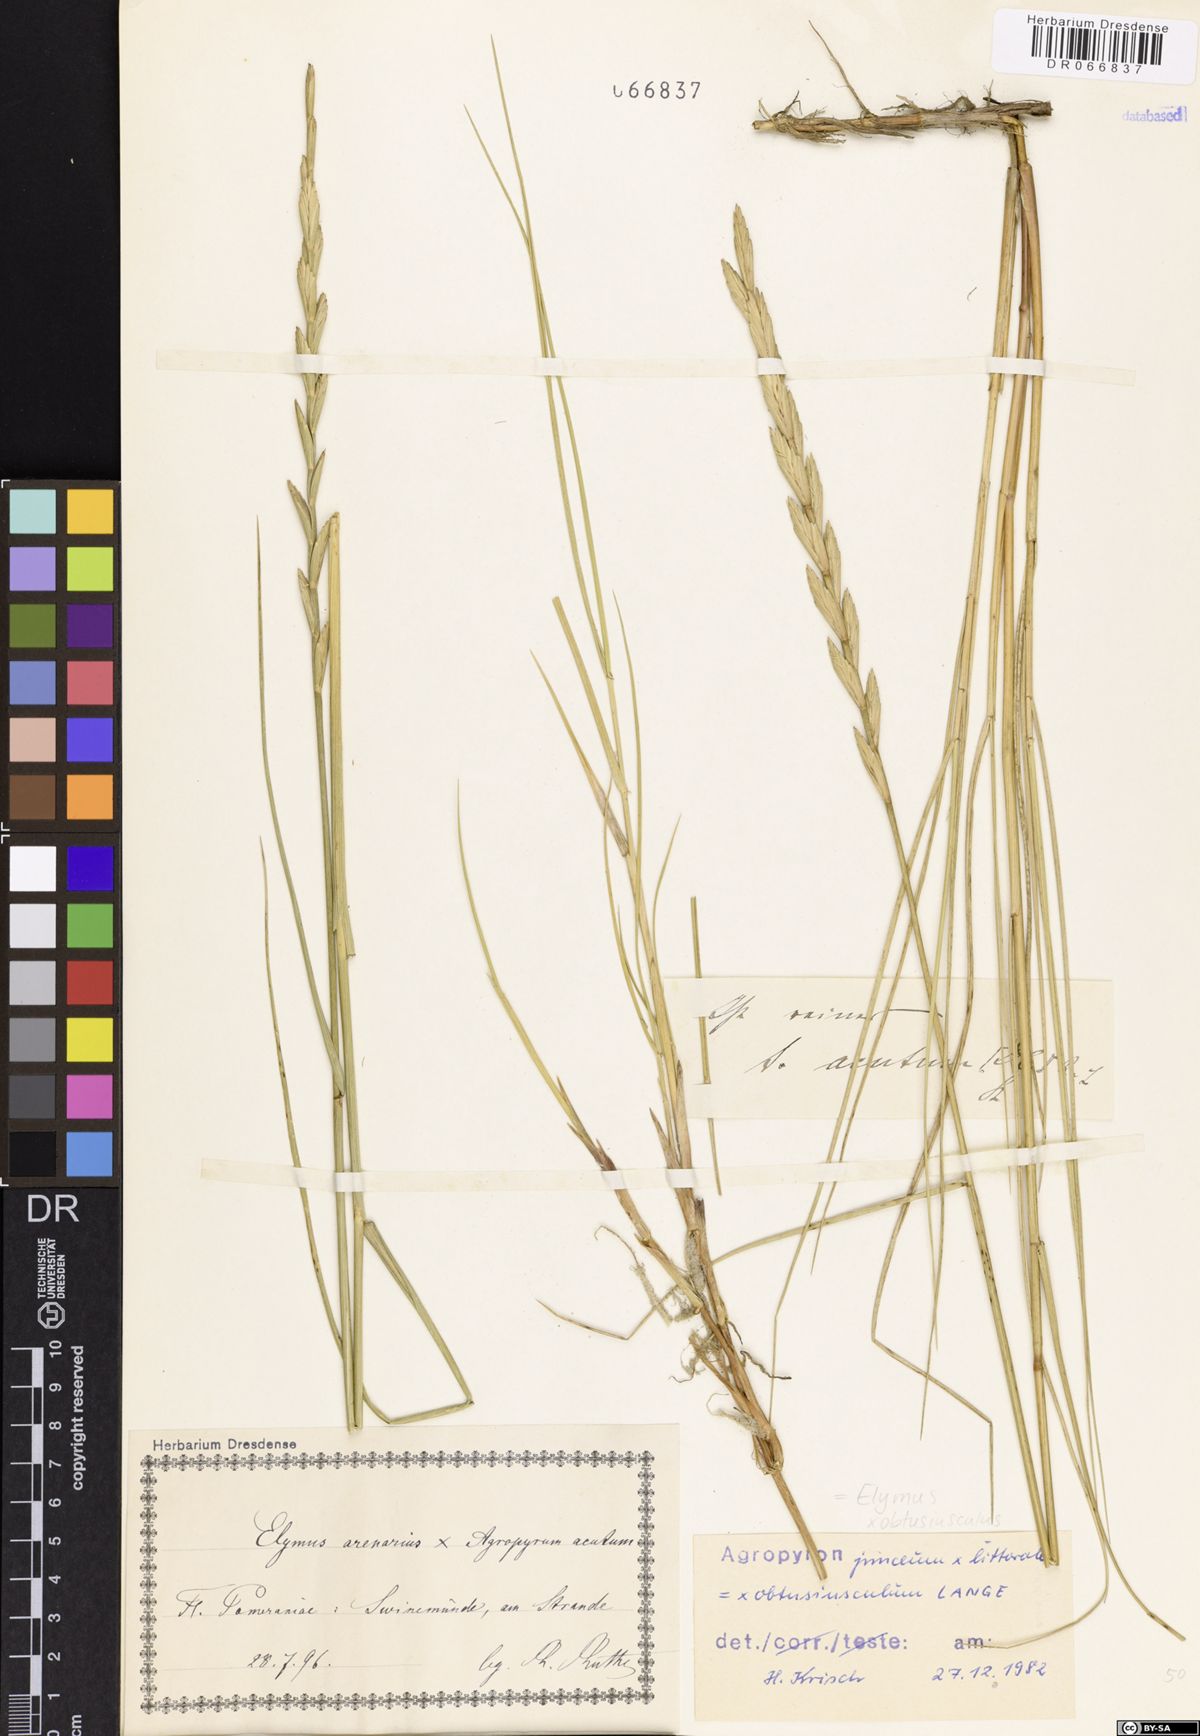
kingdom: Plantae
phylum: Tracheophyta
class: Liliopsida
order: Poales
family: Poaceae
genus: Thinoelymus
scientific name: Thinoelymus obtusiusculus
